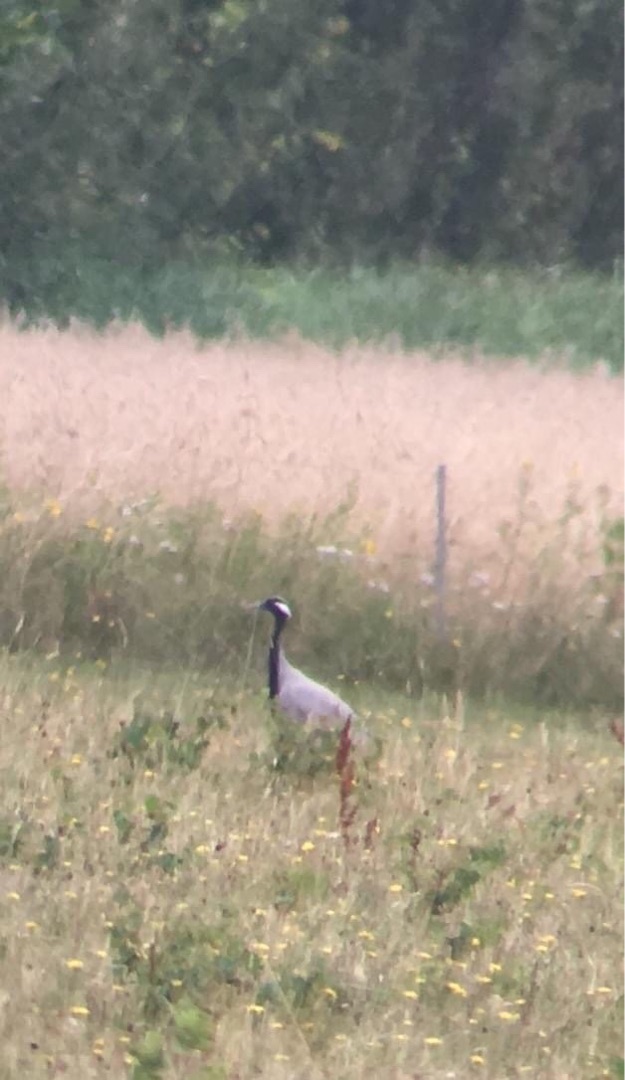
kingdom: Animalia
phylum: Chordata
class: Aves
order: Gruiformes
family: Gruidae
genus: Anthropoides
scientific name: Anthropoides virgo
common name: Jomfrutrane
